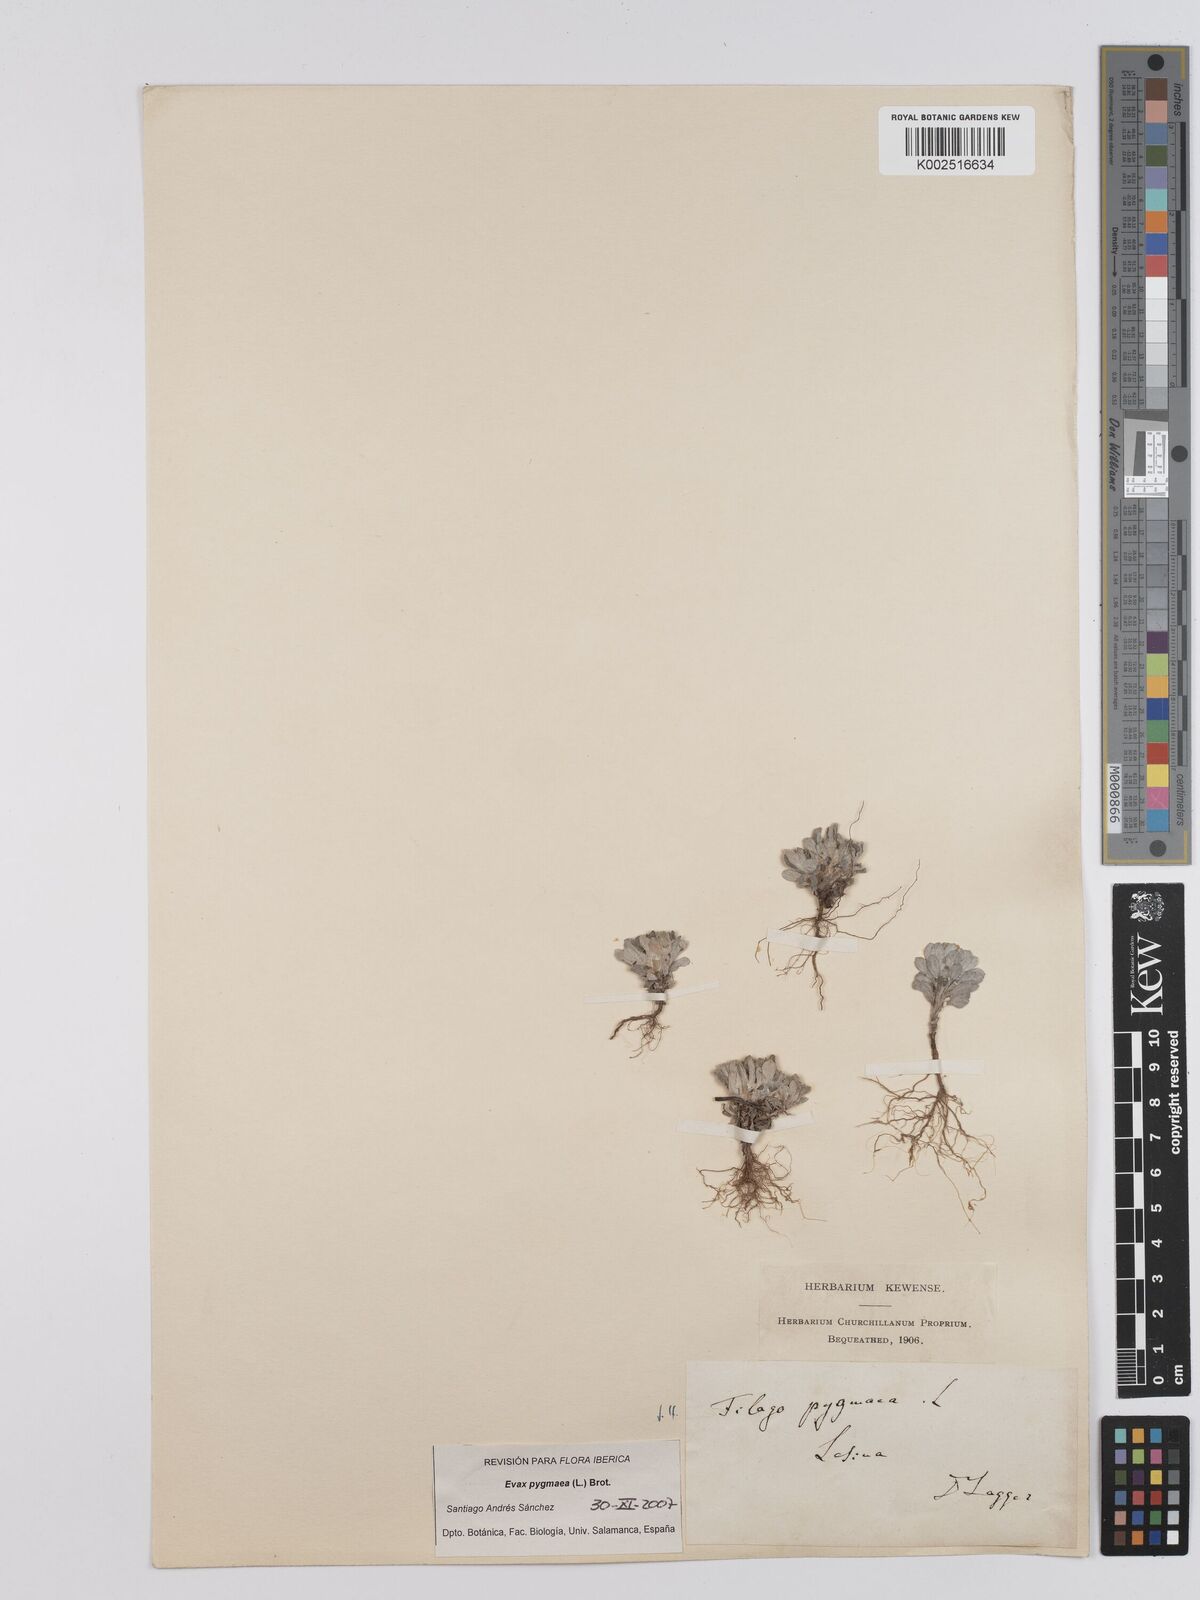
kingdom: Plantae
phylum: Tracheophyta
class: Magnoliopsida
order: Asterales
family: Asteraceae
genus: Filago
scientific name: Filago pygmaea
